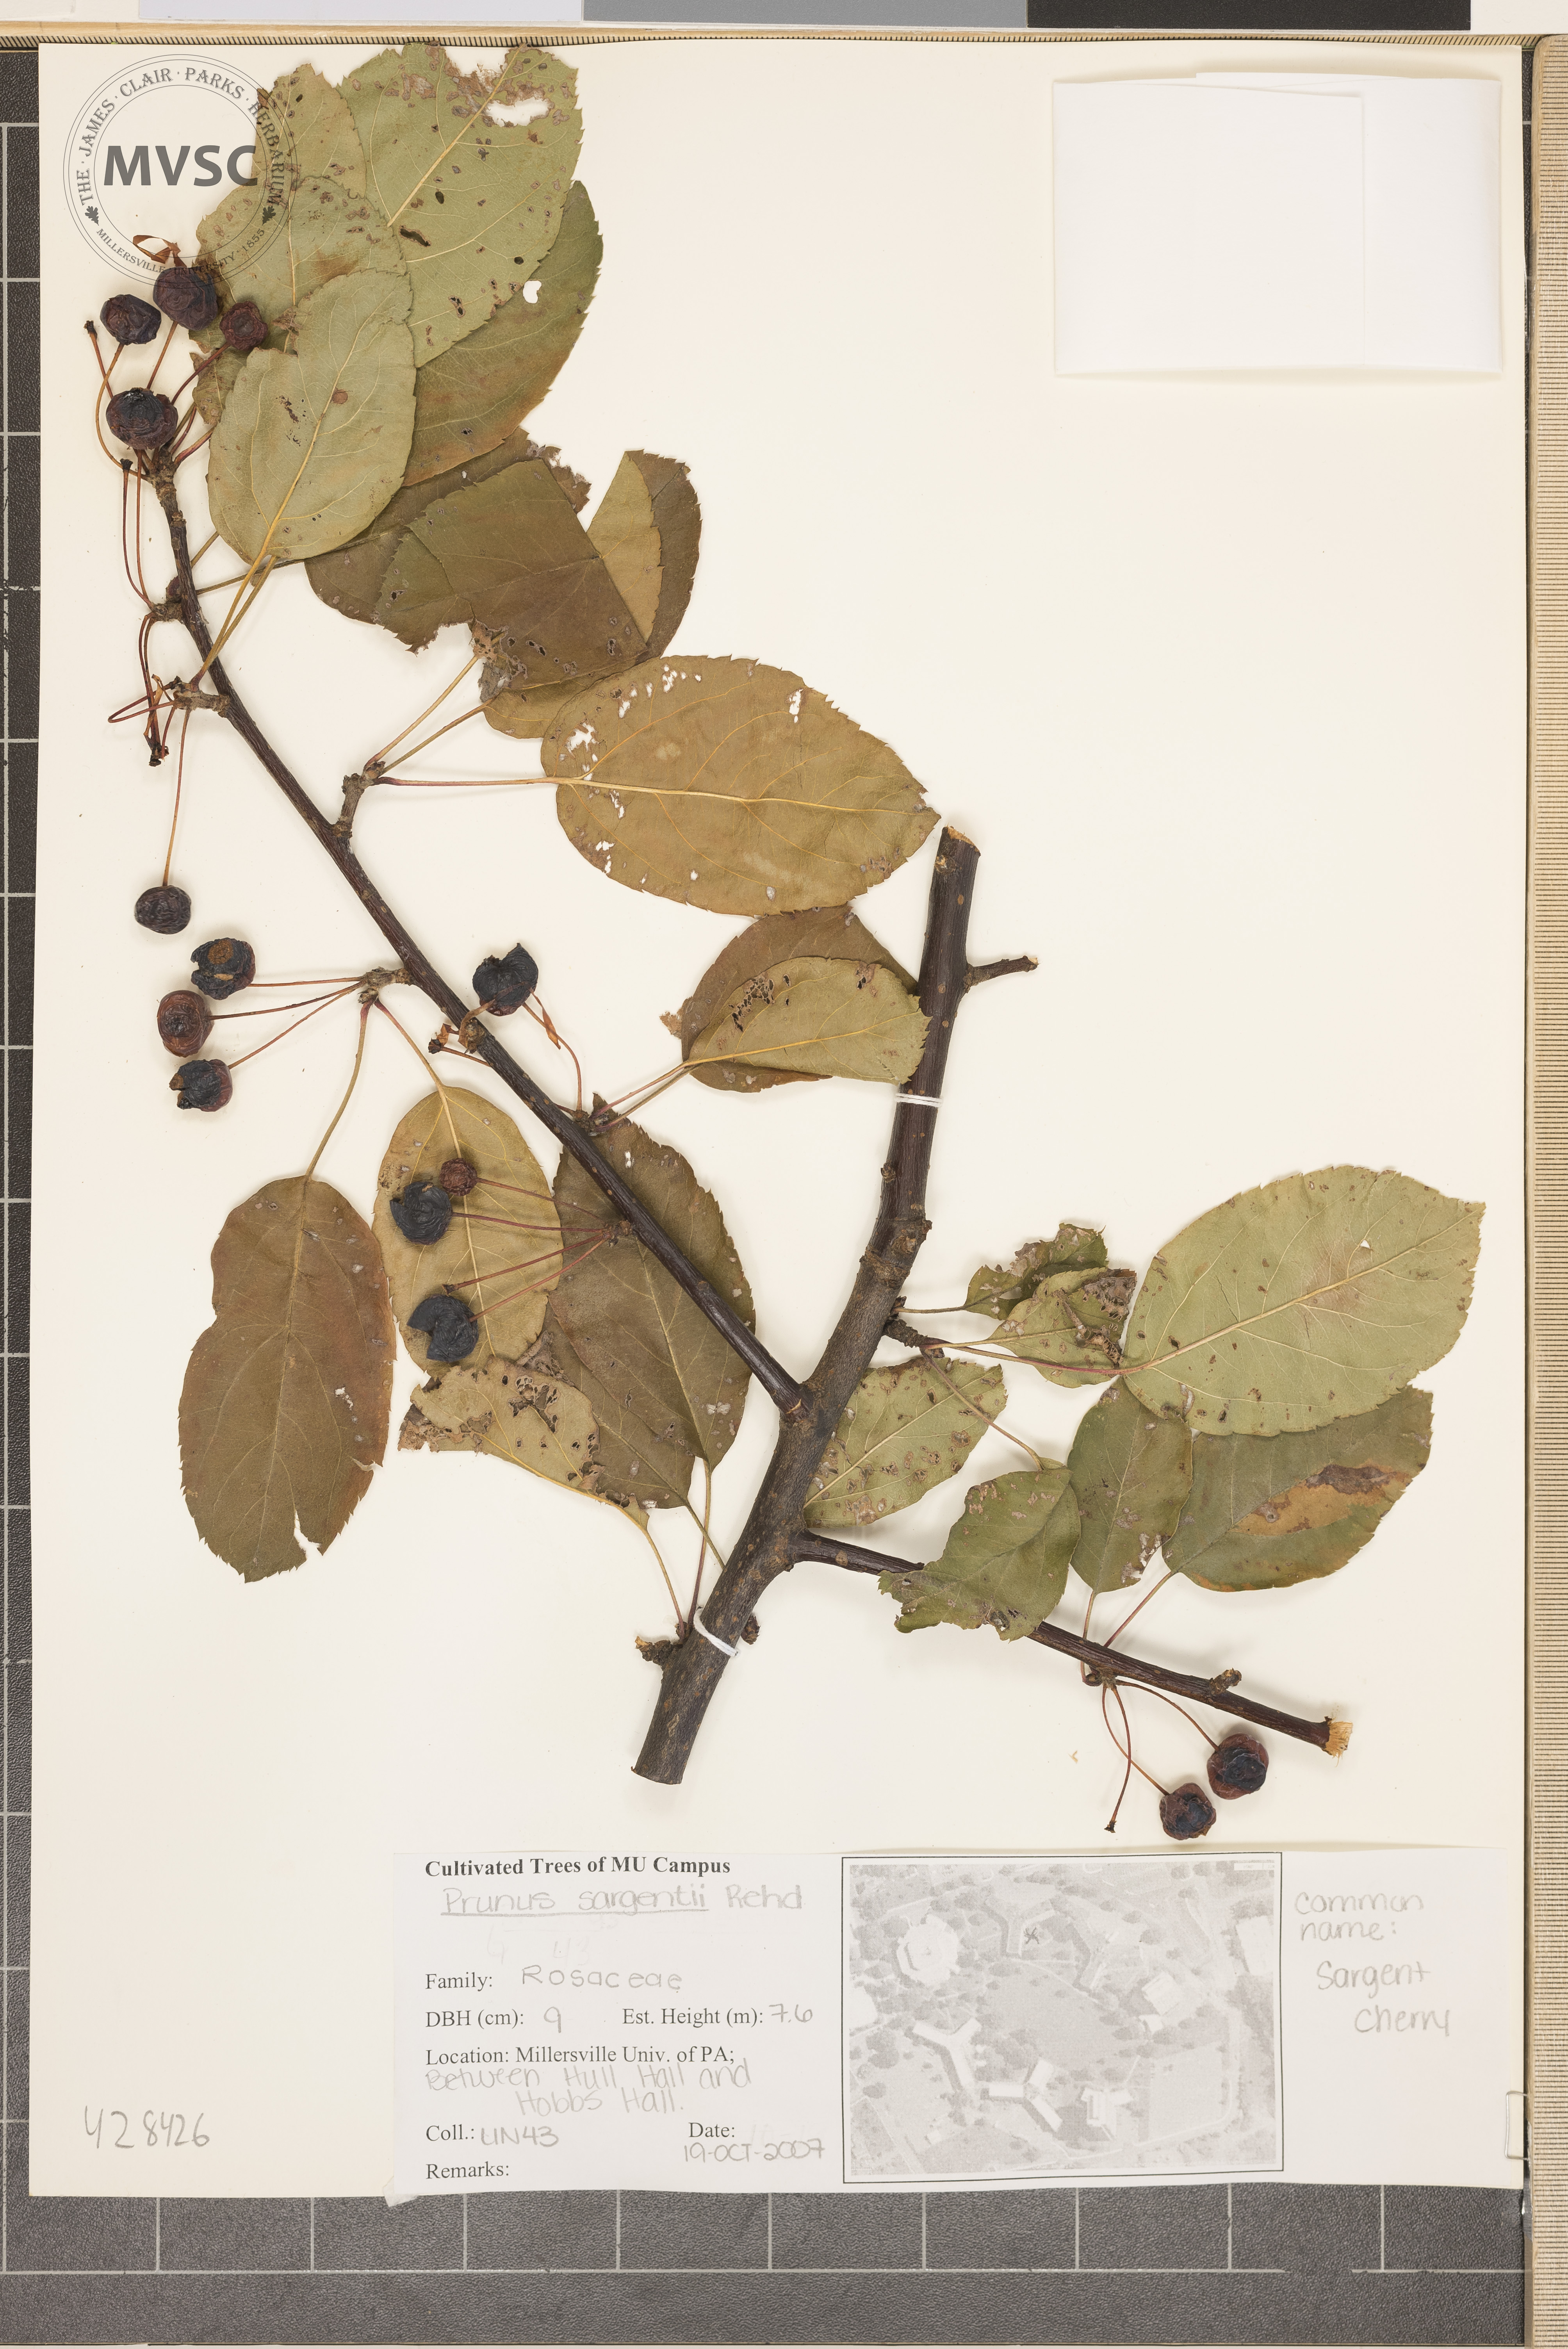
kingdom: Plantae
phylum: Tracheophyta
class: Magnoliopsida
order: Rosales
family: Rosaceae
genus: Prunus
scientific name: Prunus sargentii
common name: Sargent's Cherry
